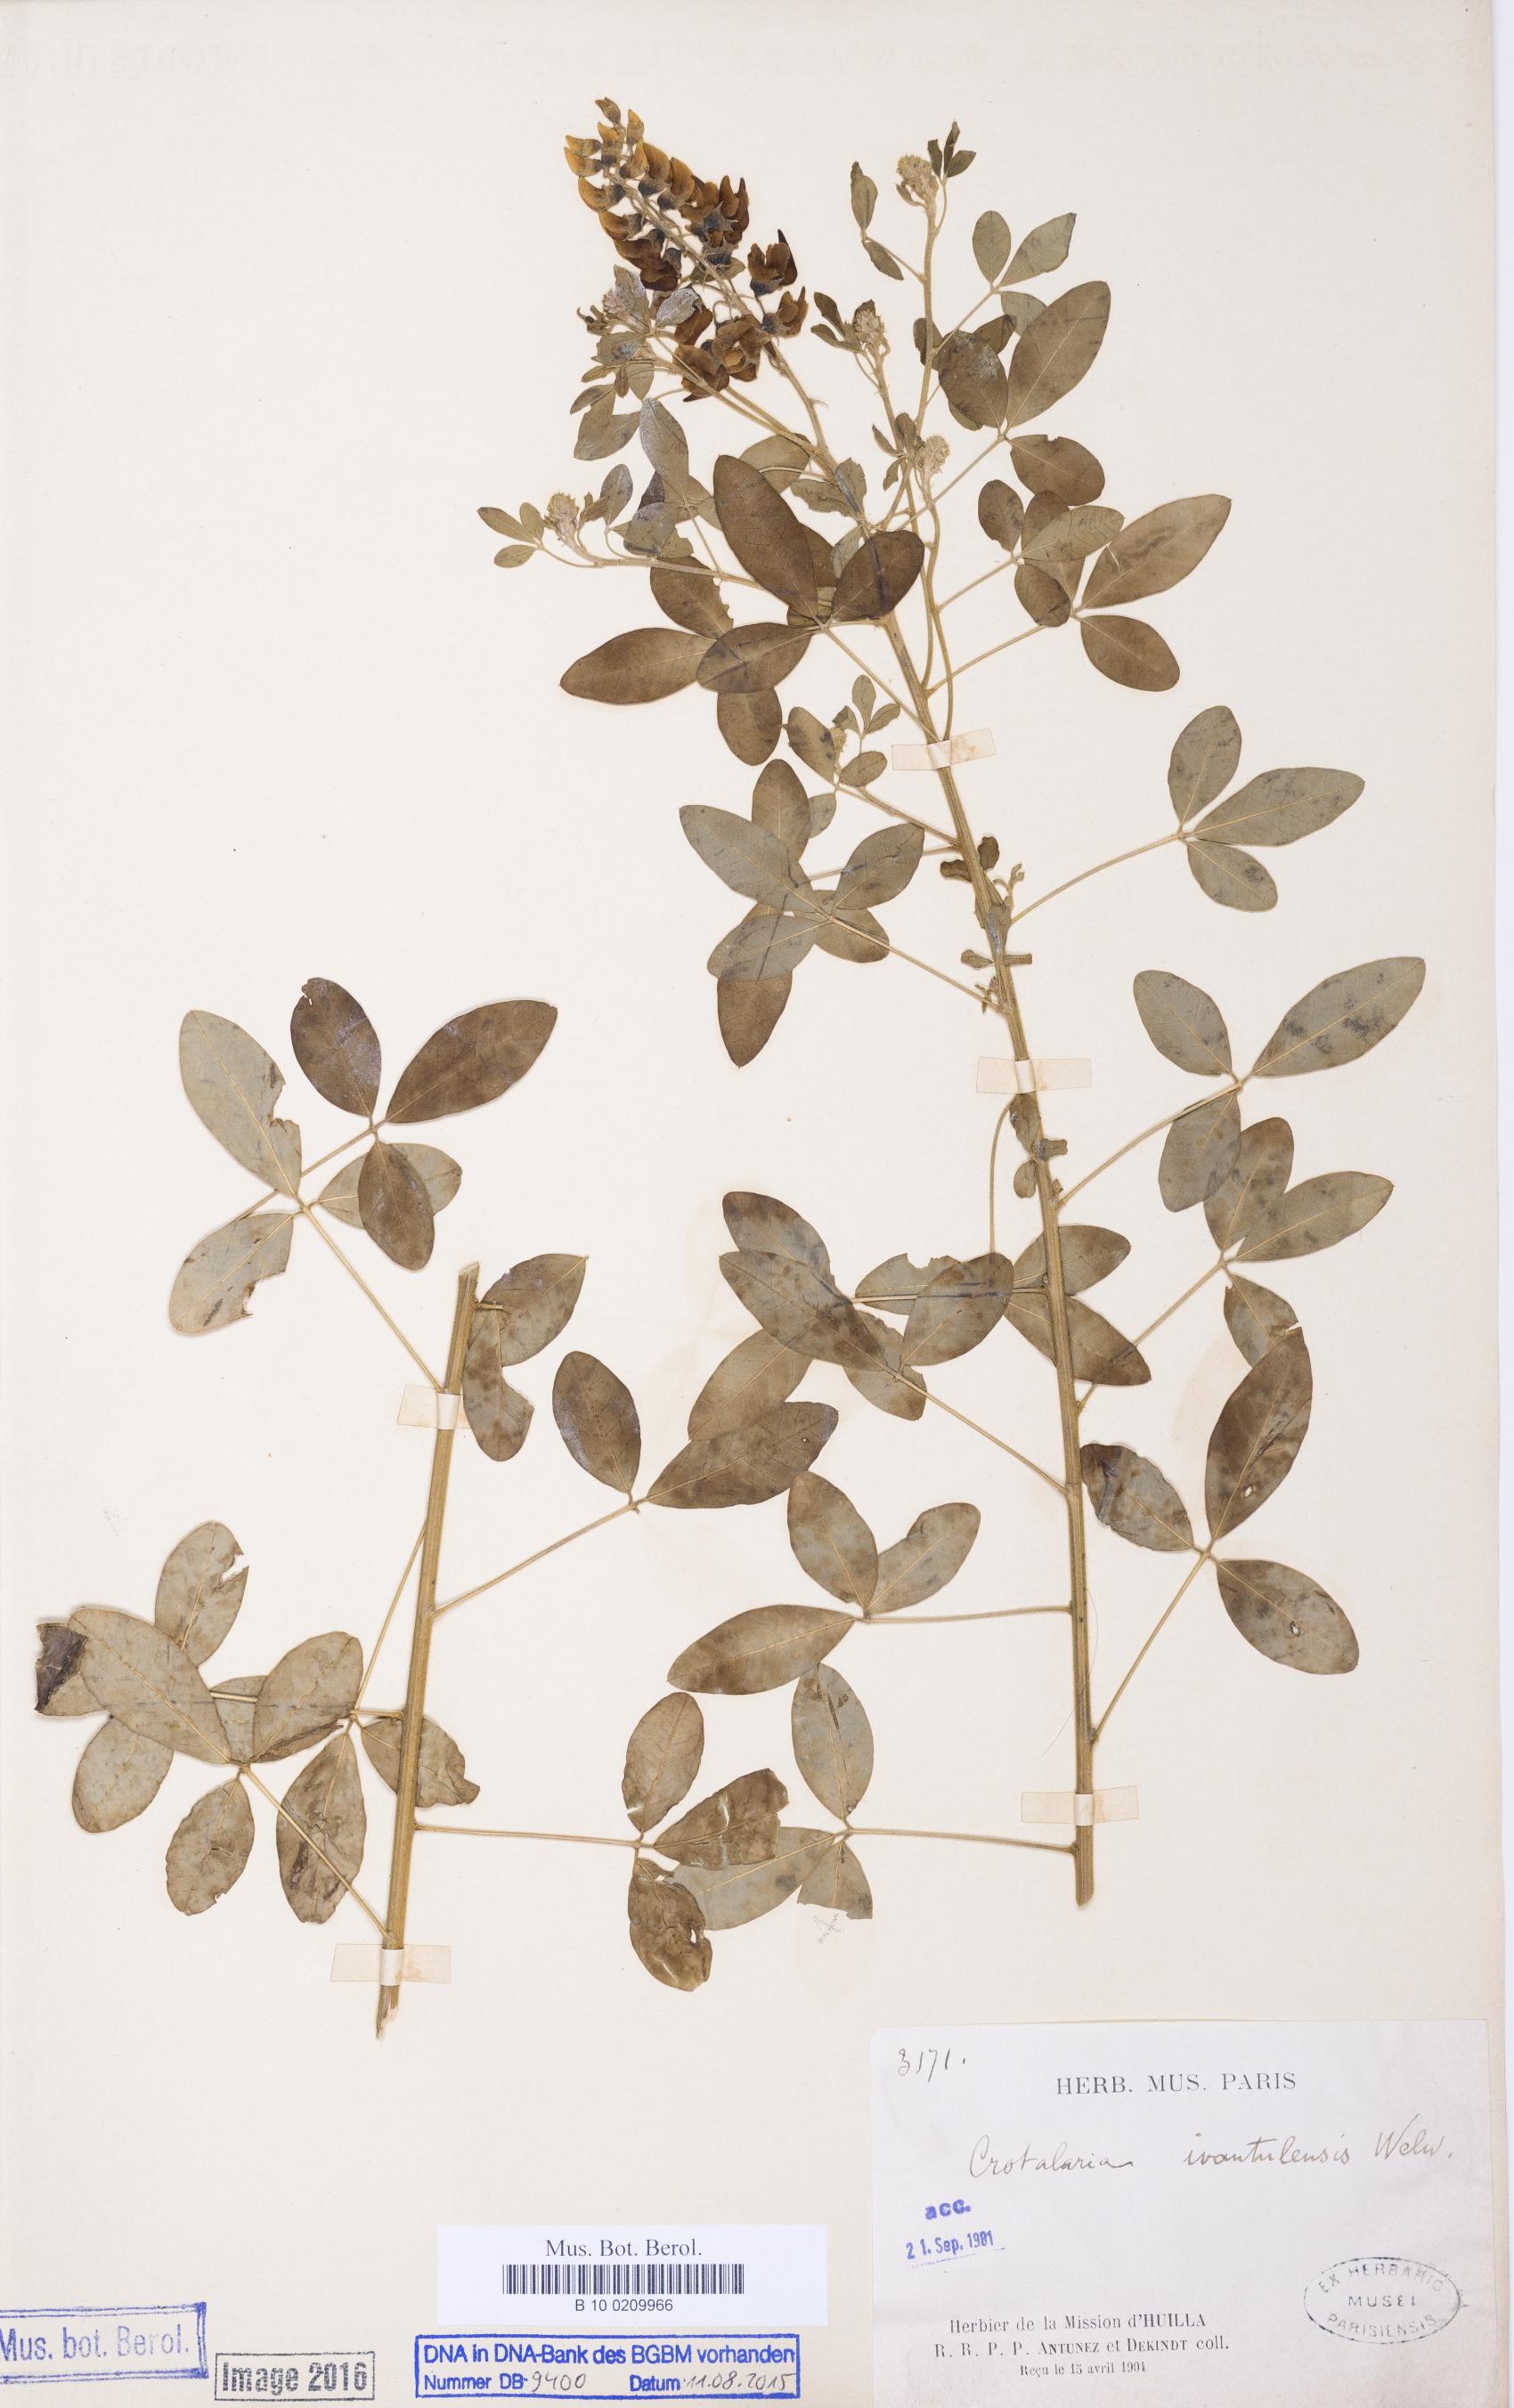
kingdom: Plantae
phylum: Tracheophyta
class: Magnoliopsida
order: Fabales
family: Fabaceae
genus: Crotalaria
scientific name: Crotalaria ivantalensis
